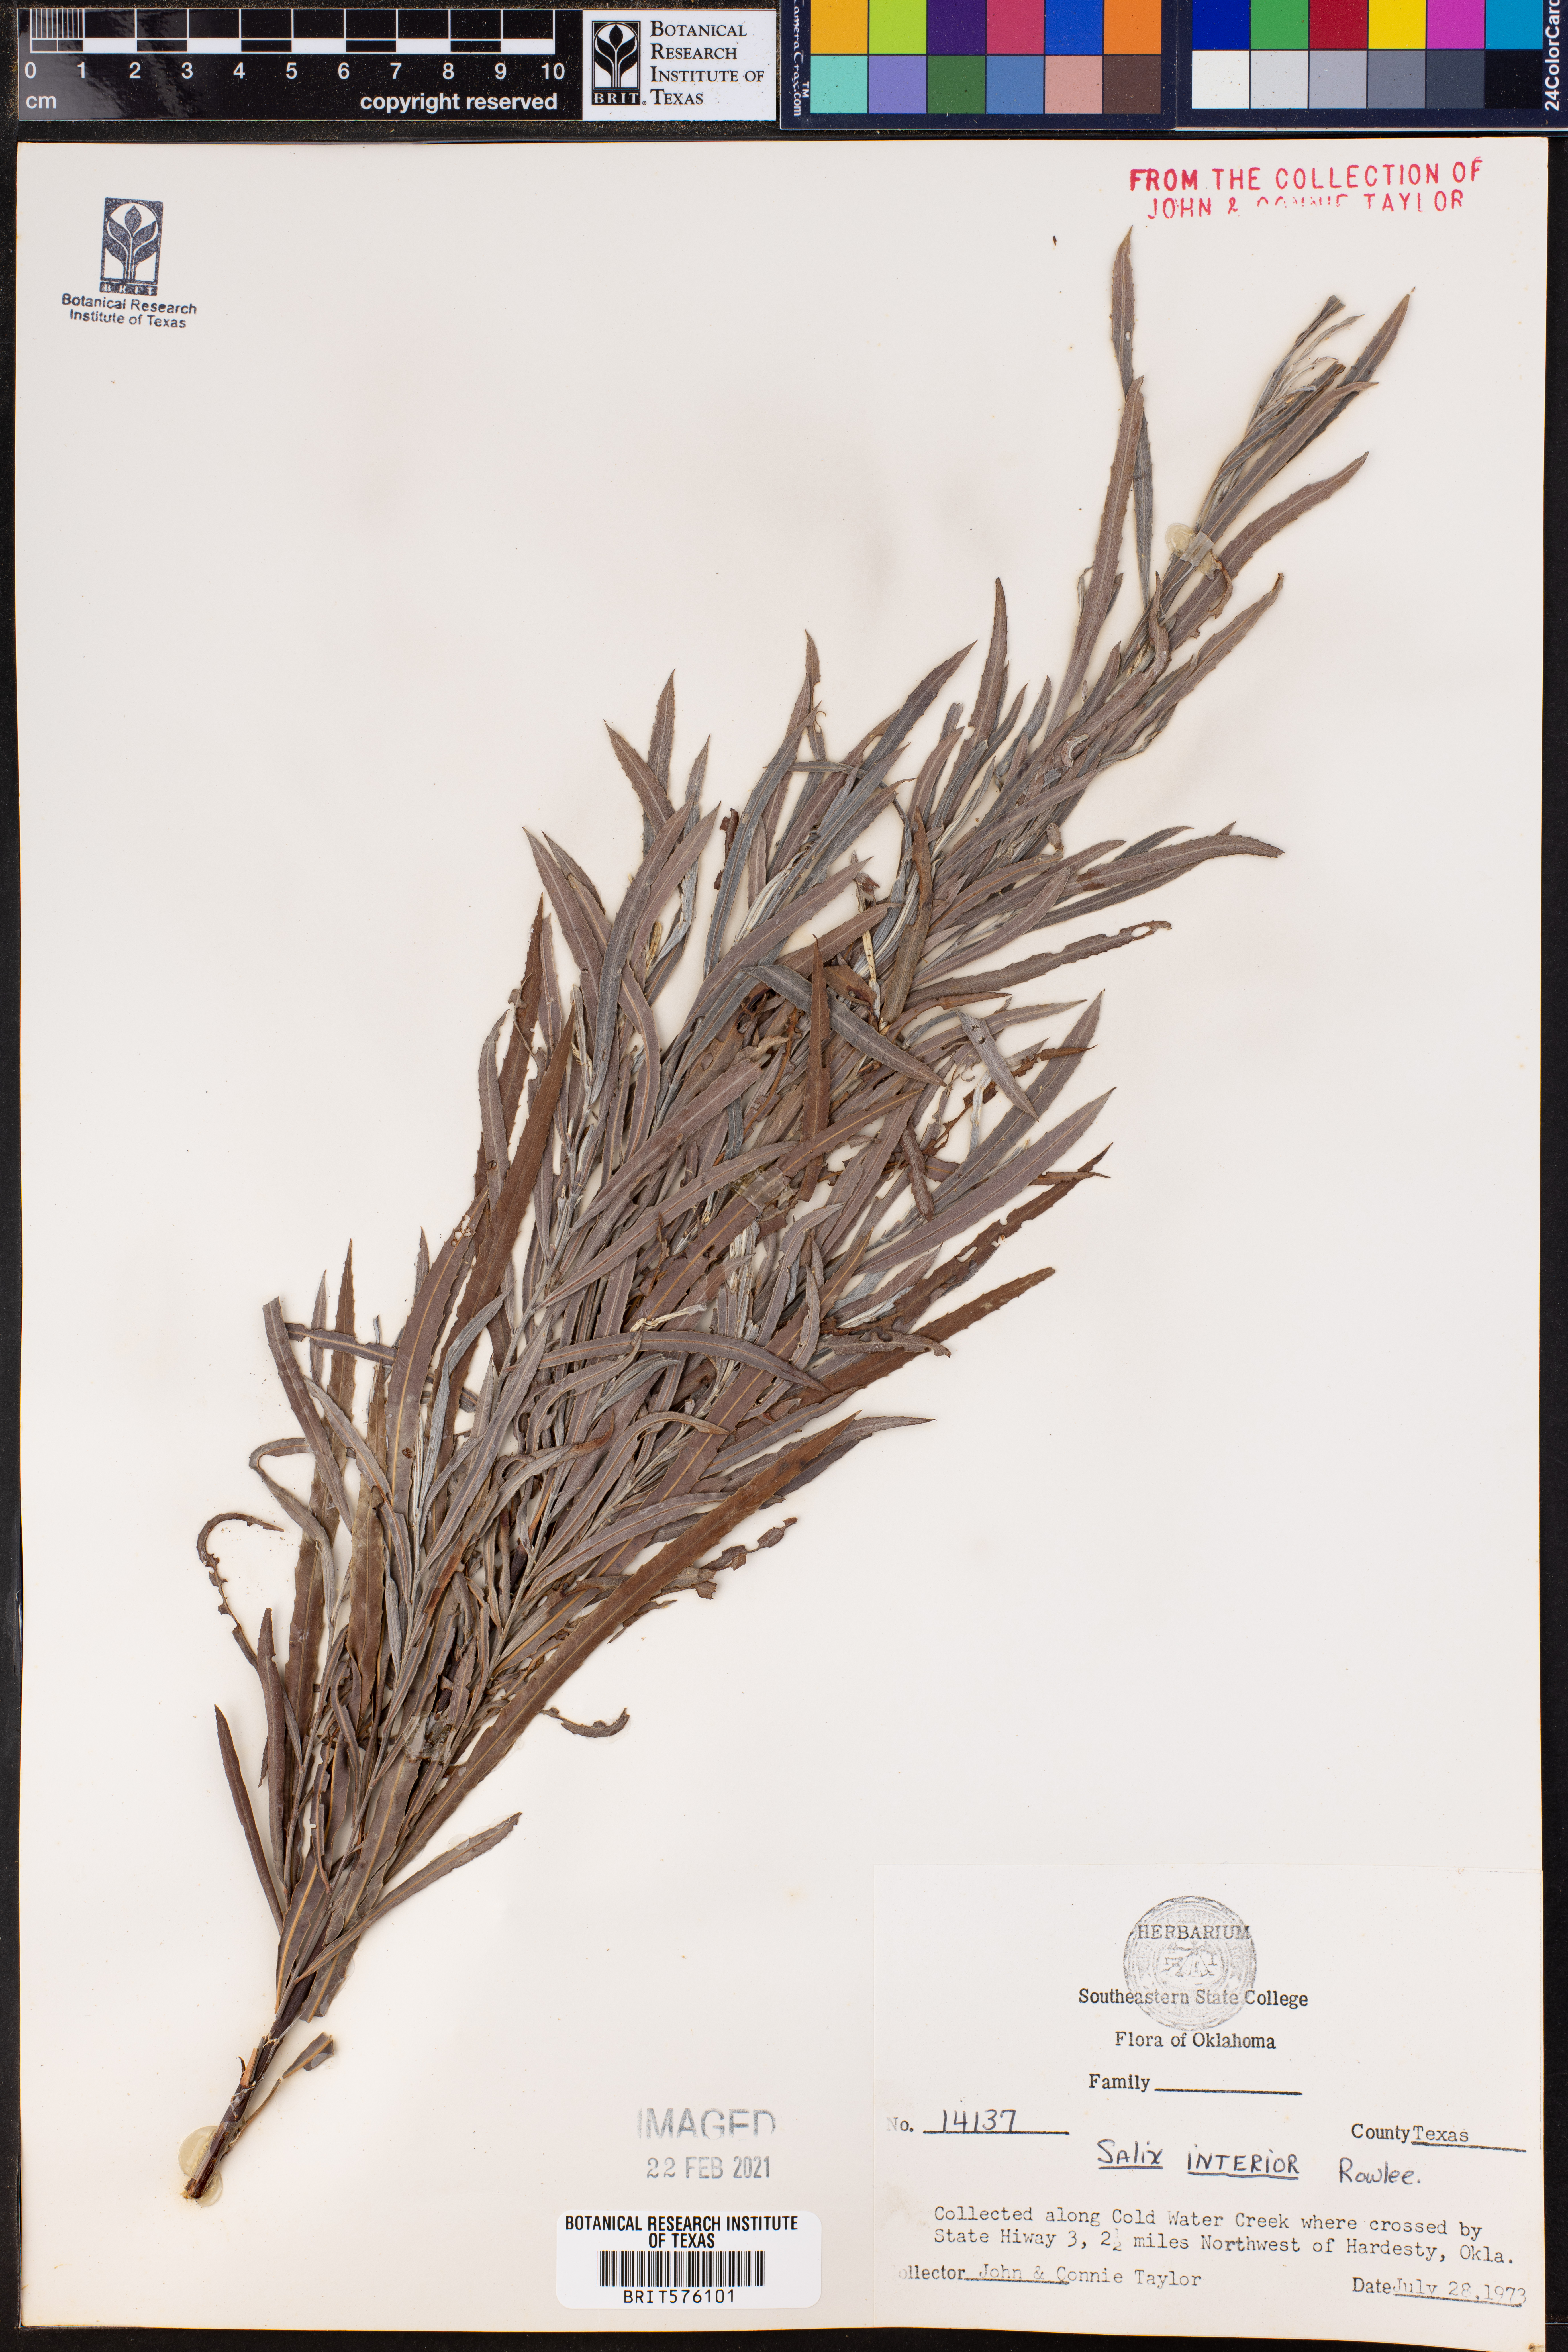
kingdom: Plantae
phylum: Tracheophyta
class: Magnoliopsida
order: Malpighiales
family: Salicaceae
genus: Salix
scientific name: Salix interior
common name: Sandbar willow
